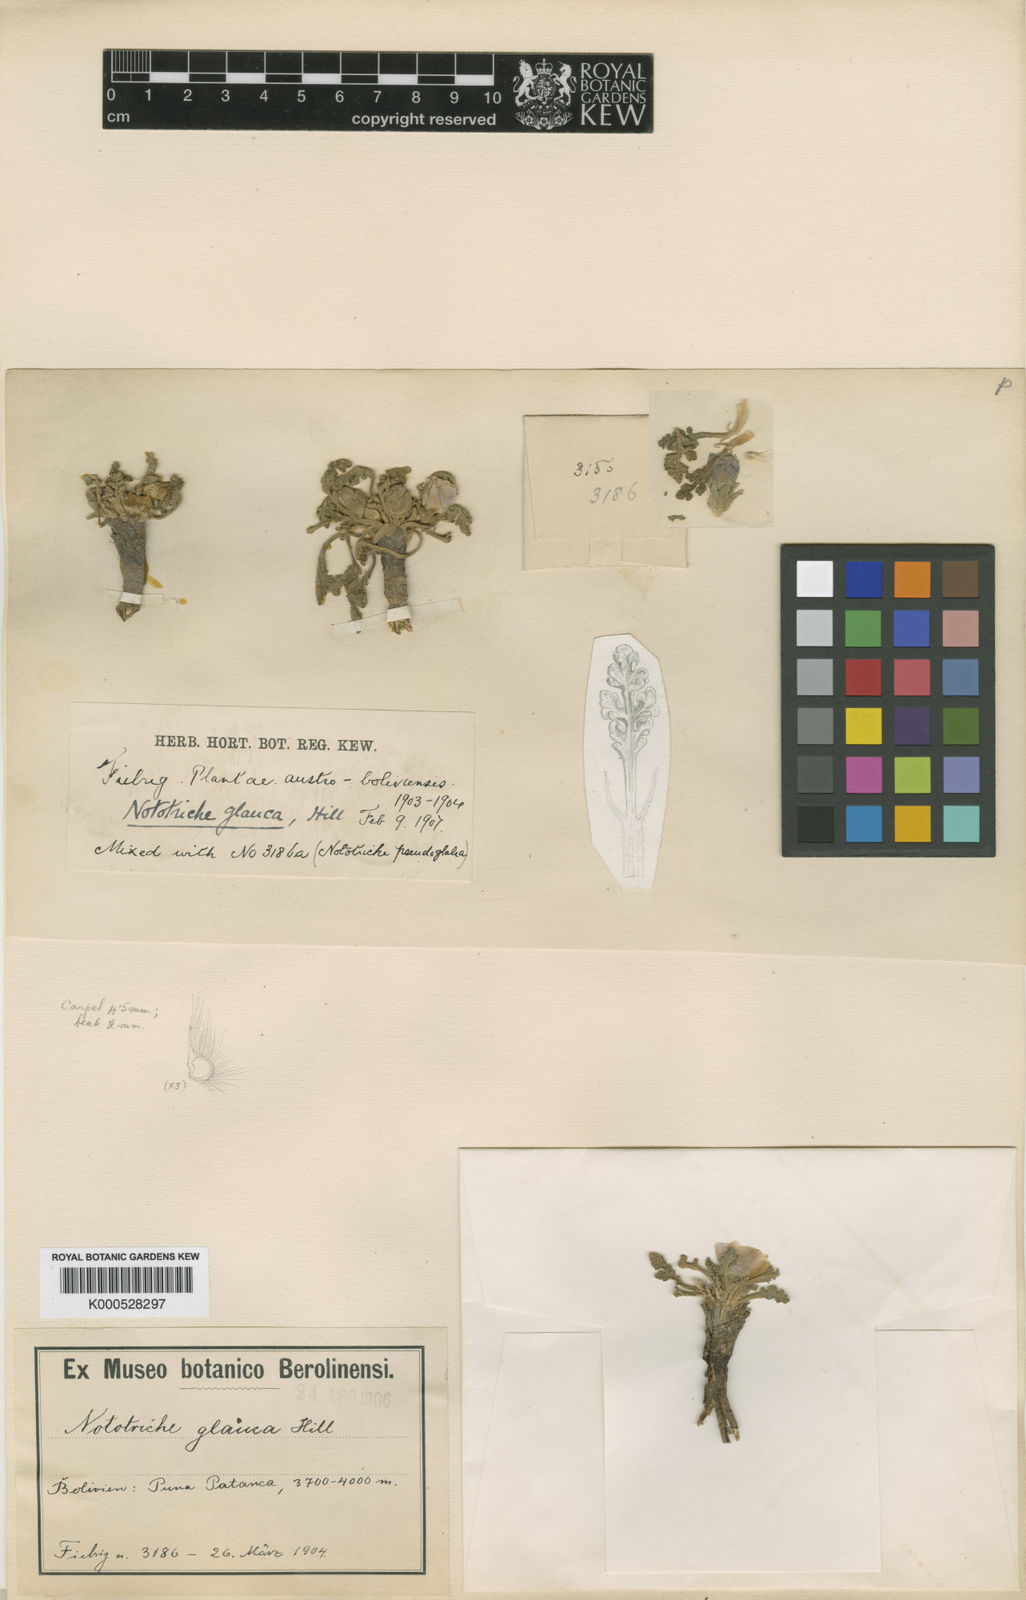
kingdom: Plantae
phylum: Tracheophyta
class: Magnoliopsida
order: Malvales
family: Malvaceae
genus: Nototriche
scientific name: Nototriche glauca
